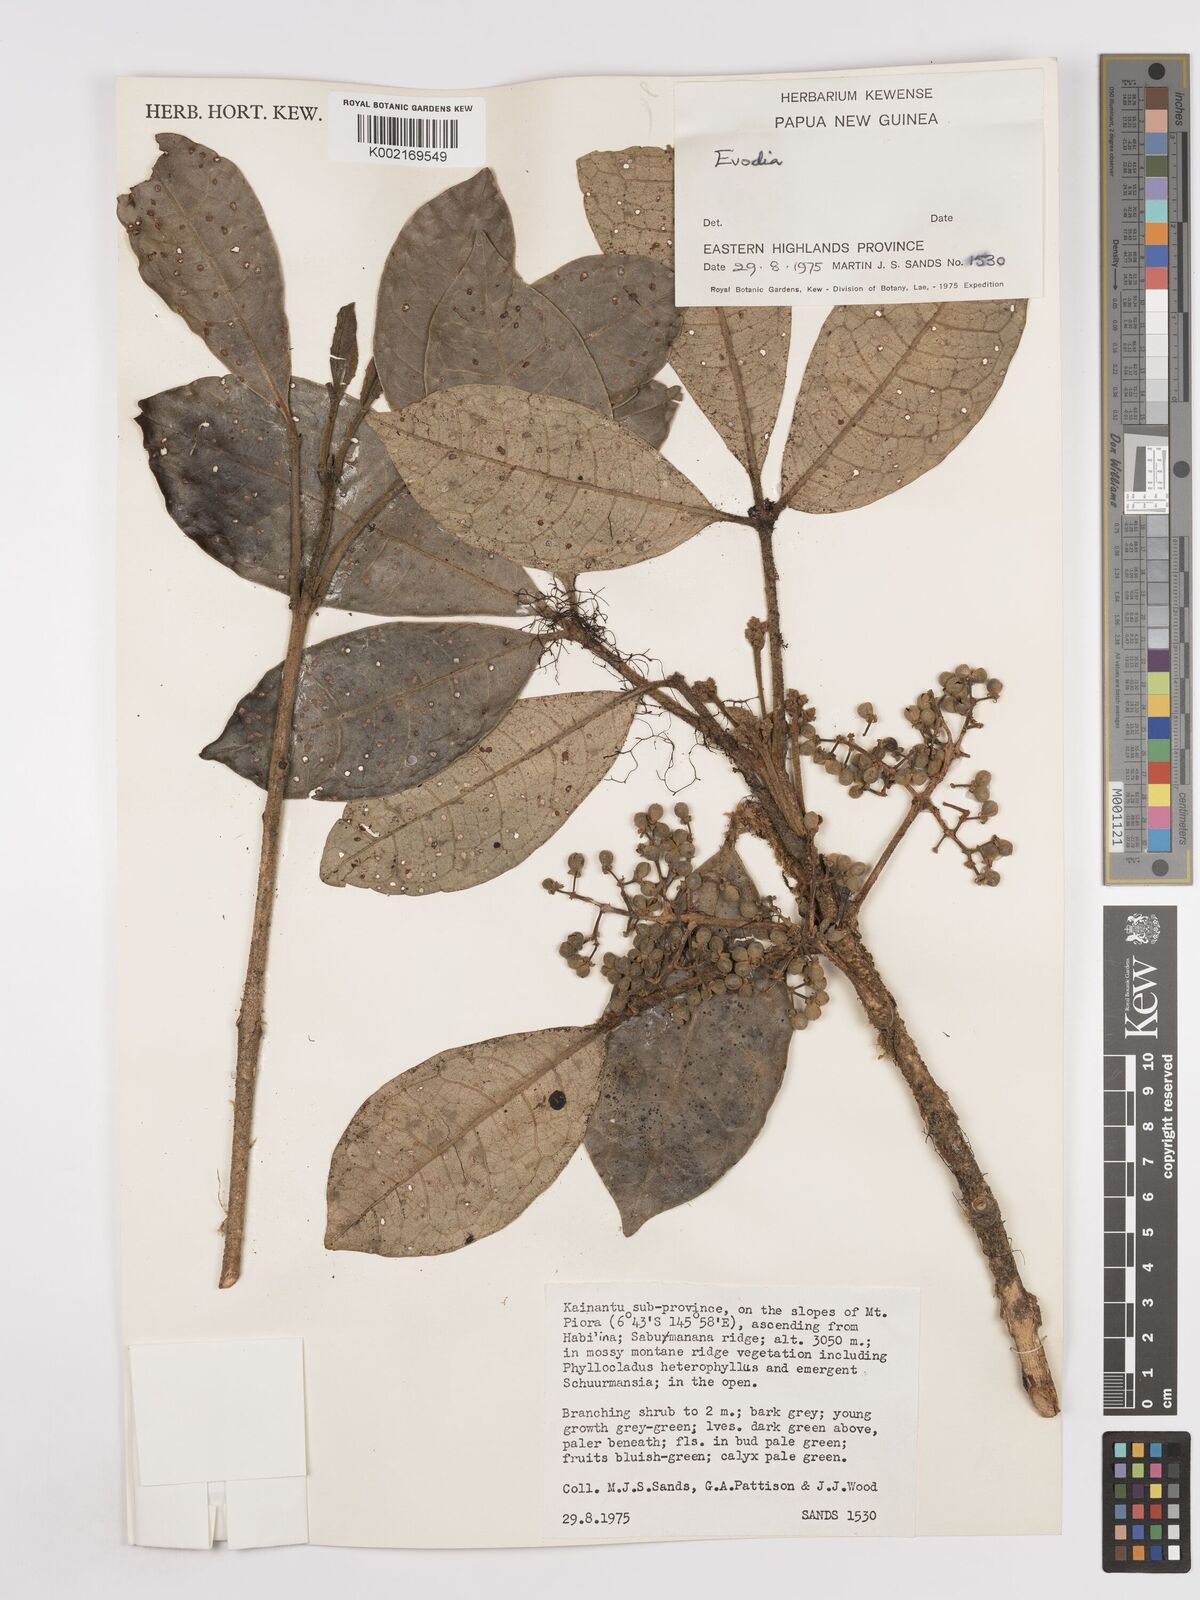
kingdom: Plantae
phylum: Tracheophyta
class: Magnoliopsida
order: Sapindales
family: Rutaceae
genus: Euodia
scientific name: Euodia
